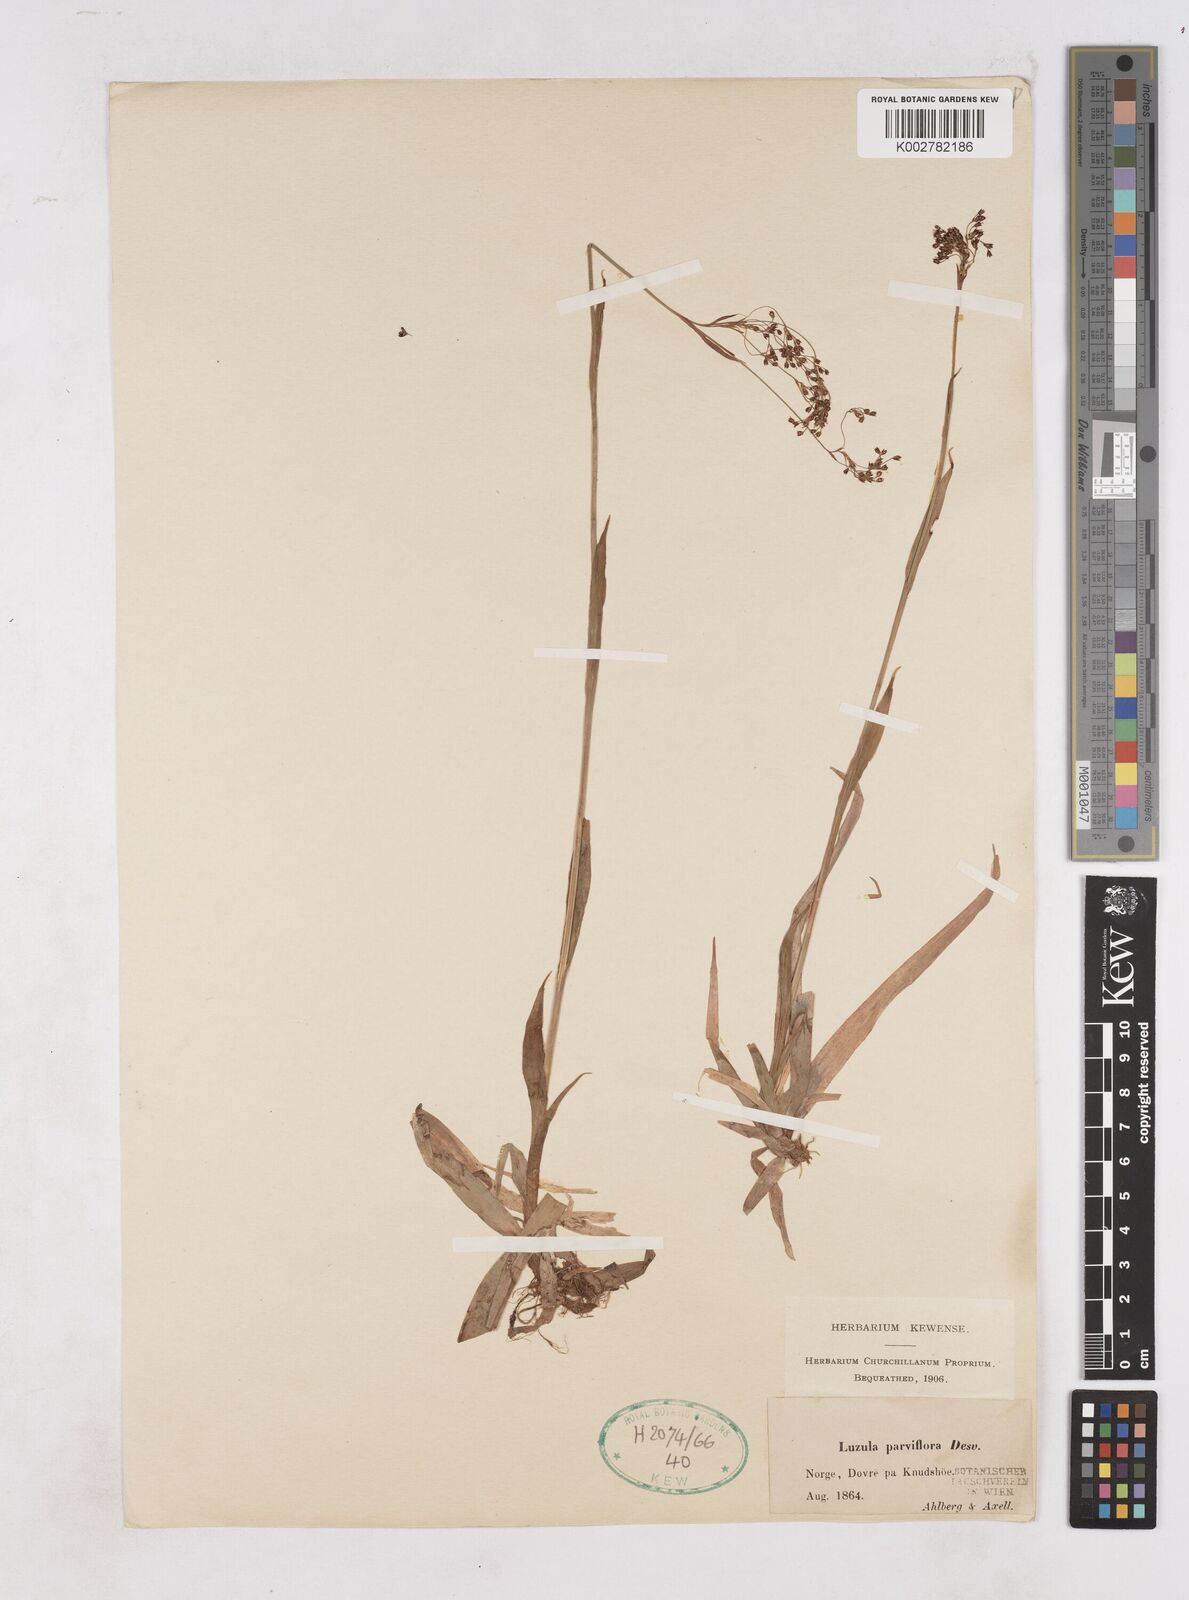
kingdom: Plantae
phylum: Tracheophyta
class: Liliopsida
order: Poales
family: Juncaceae
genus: Luzula
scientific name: Luzula parviflora
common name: Millet woodrush
